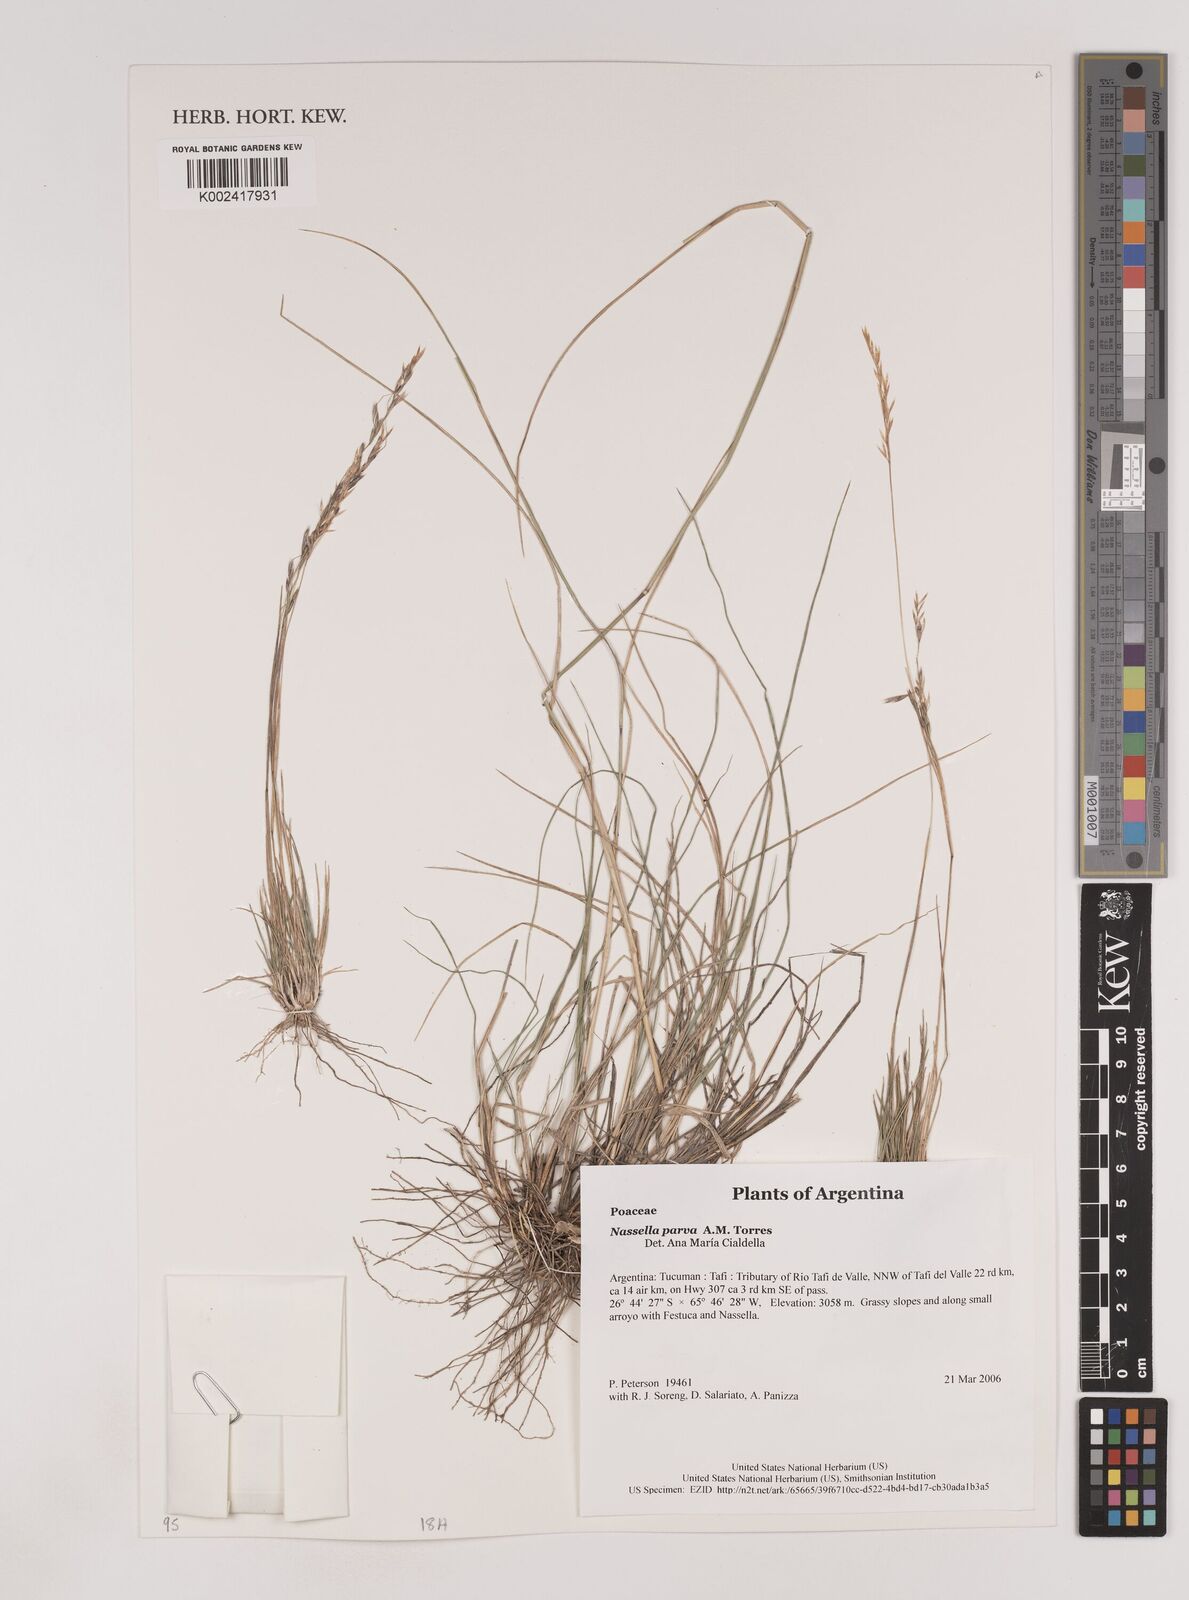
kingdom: Plantae
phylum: Tracheophyta
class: Liliopsida
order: Poales
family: Poaceae
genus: Nassella
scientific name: Nassella parva
